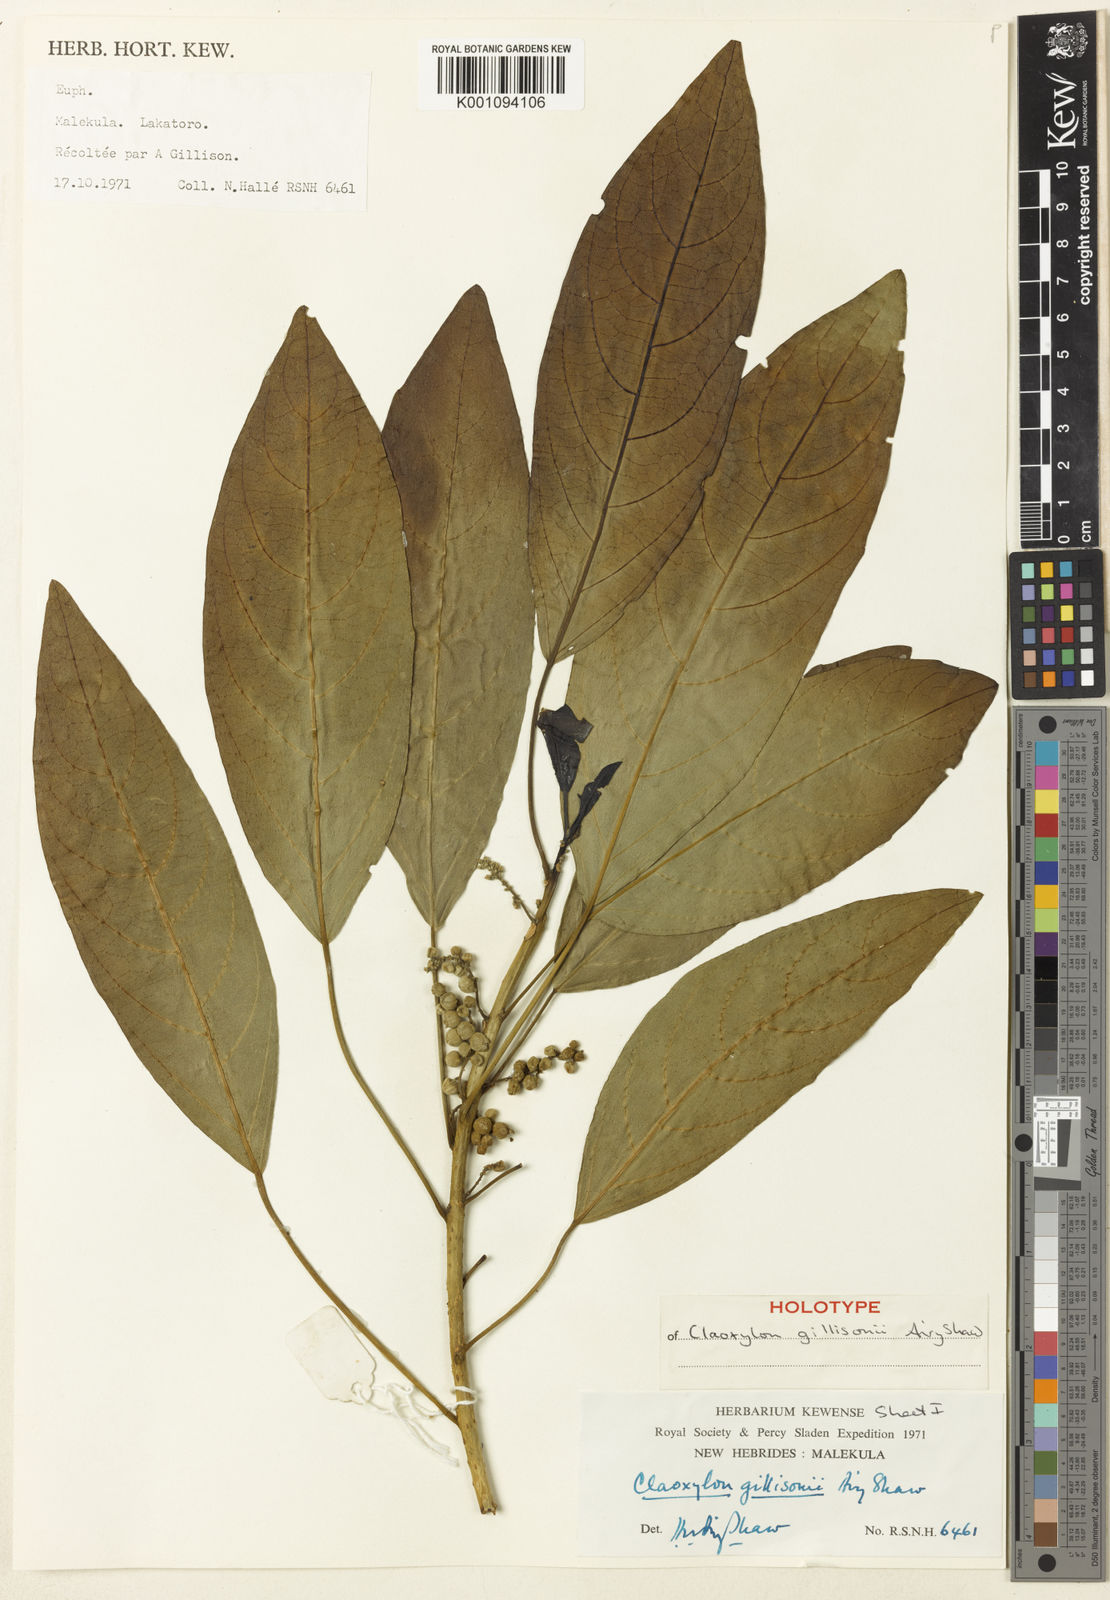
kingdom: Plantae
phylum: Tracheophyta
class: Magnoliopsida
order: Malpighiales
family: Euphorbiaceae
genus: Claoxylon
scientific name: Claoxylon gillisonii
